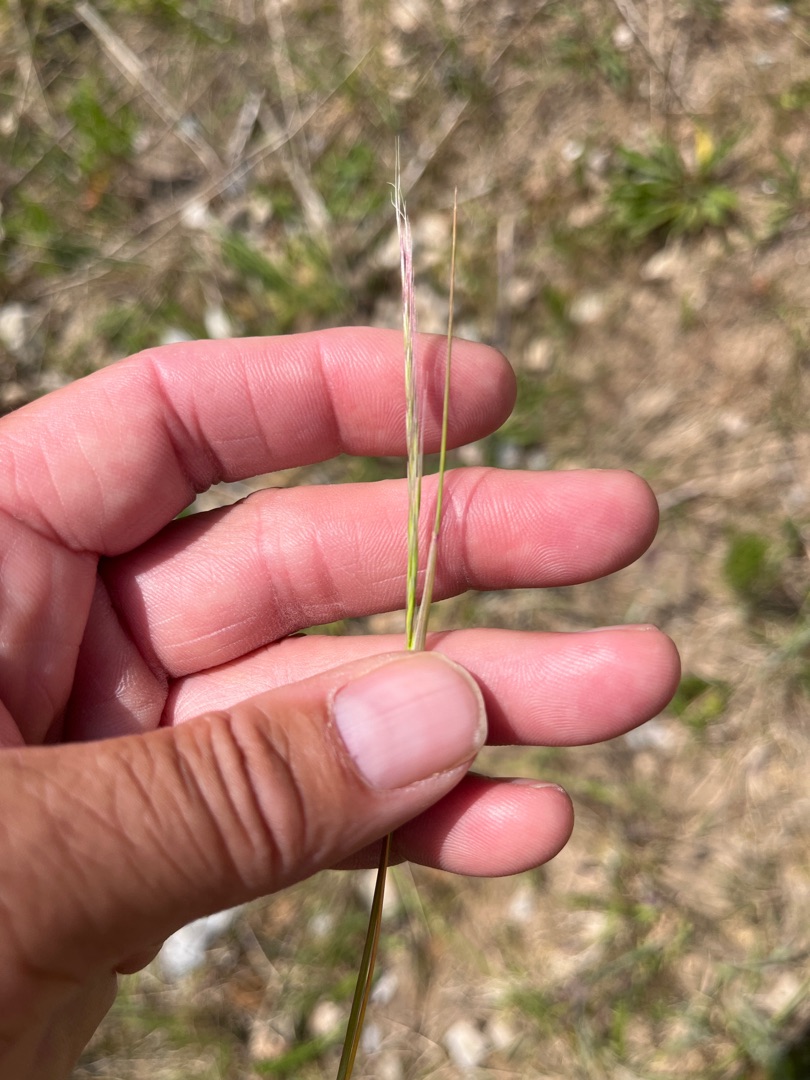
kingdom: Plantae
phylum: Tracheophyta
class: Liliopsida
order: Poales
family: Poaceae
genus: Festuca
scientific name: Festuca myuros
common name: Stor væselhale
